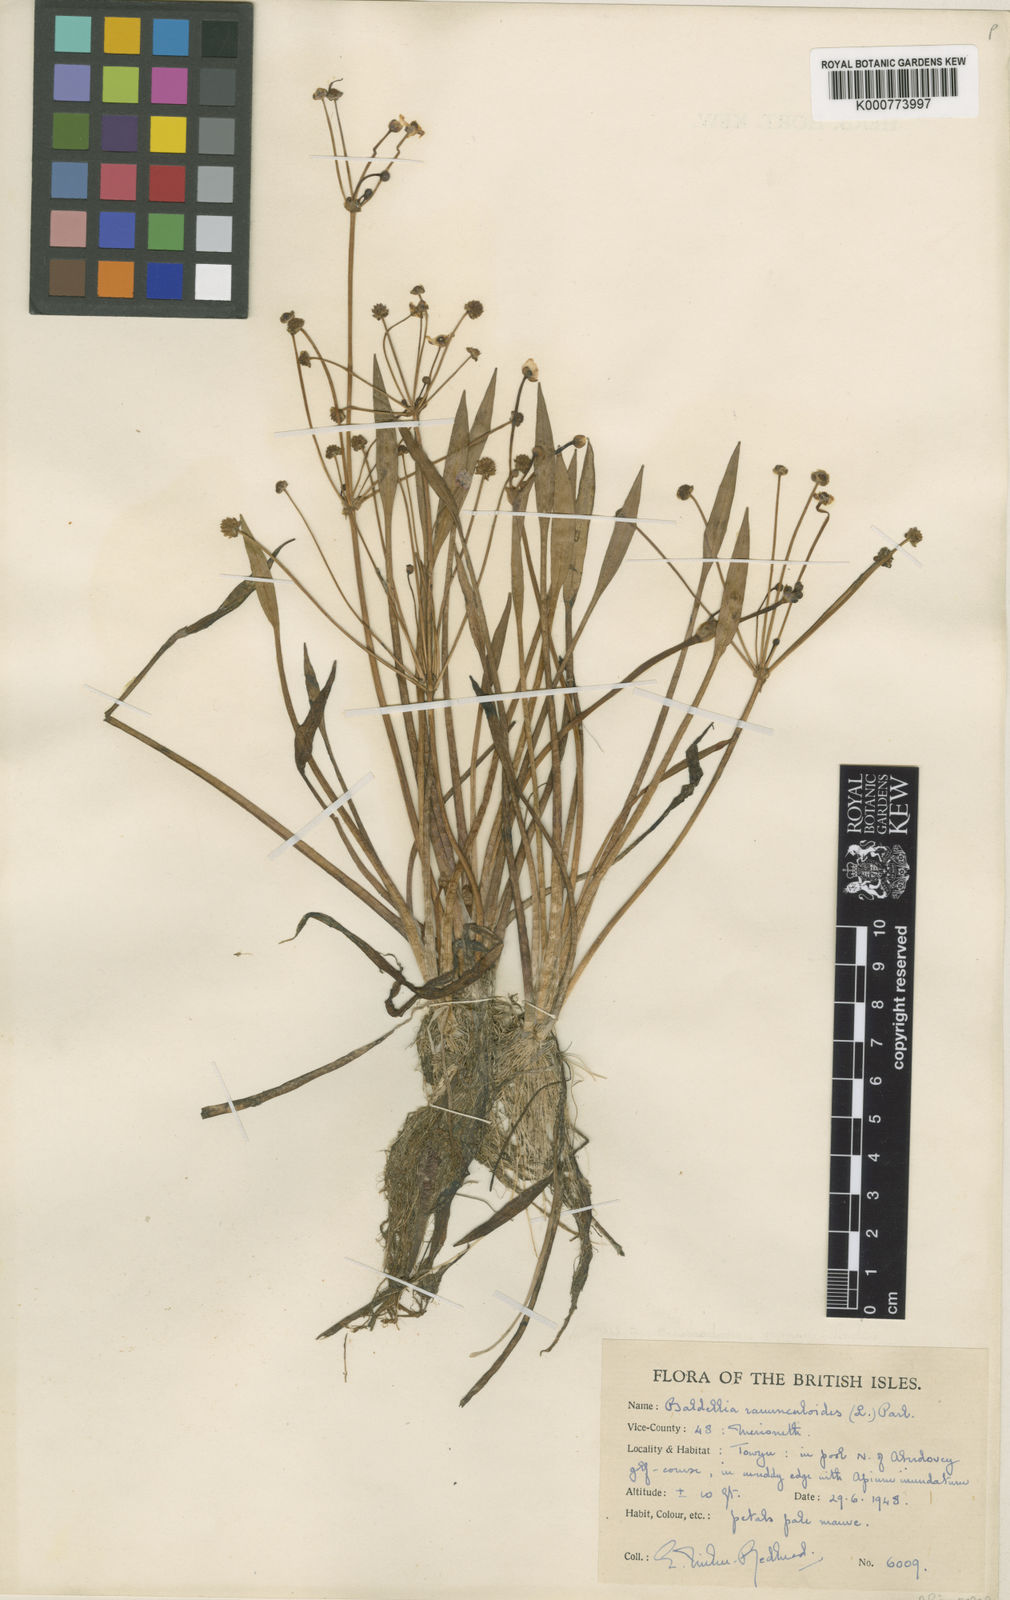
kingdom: Plantae
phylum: Tracheophyta
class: Liliopsida
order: Alismatales
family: Alismataceae
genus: Baldellia
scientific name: Baldellia ranunculoides
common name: Lesser water-plantain
